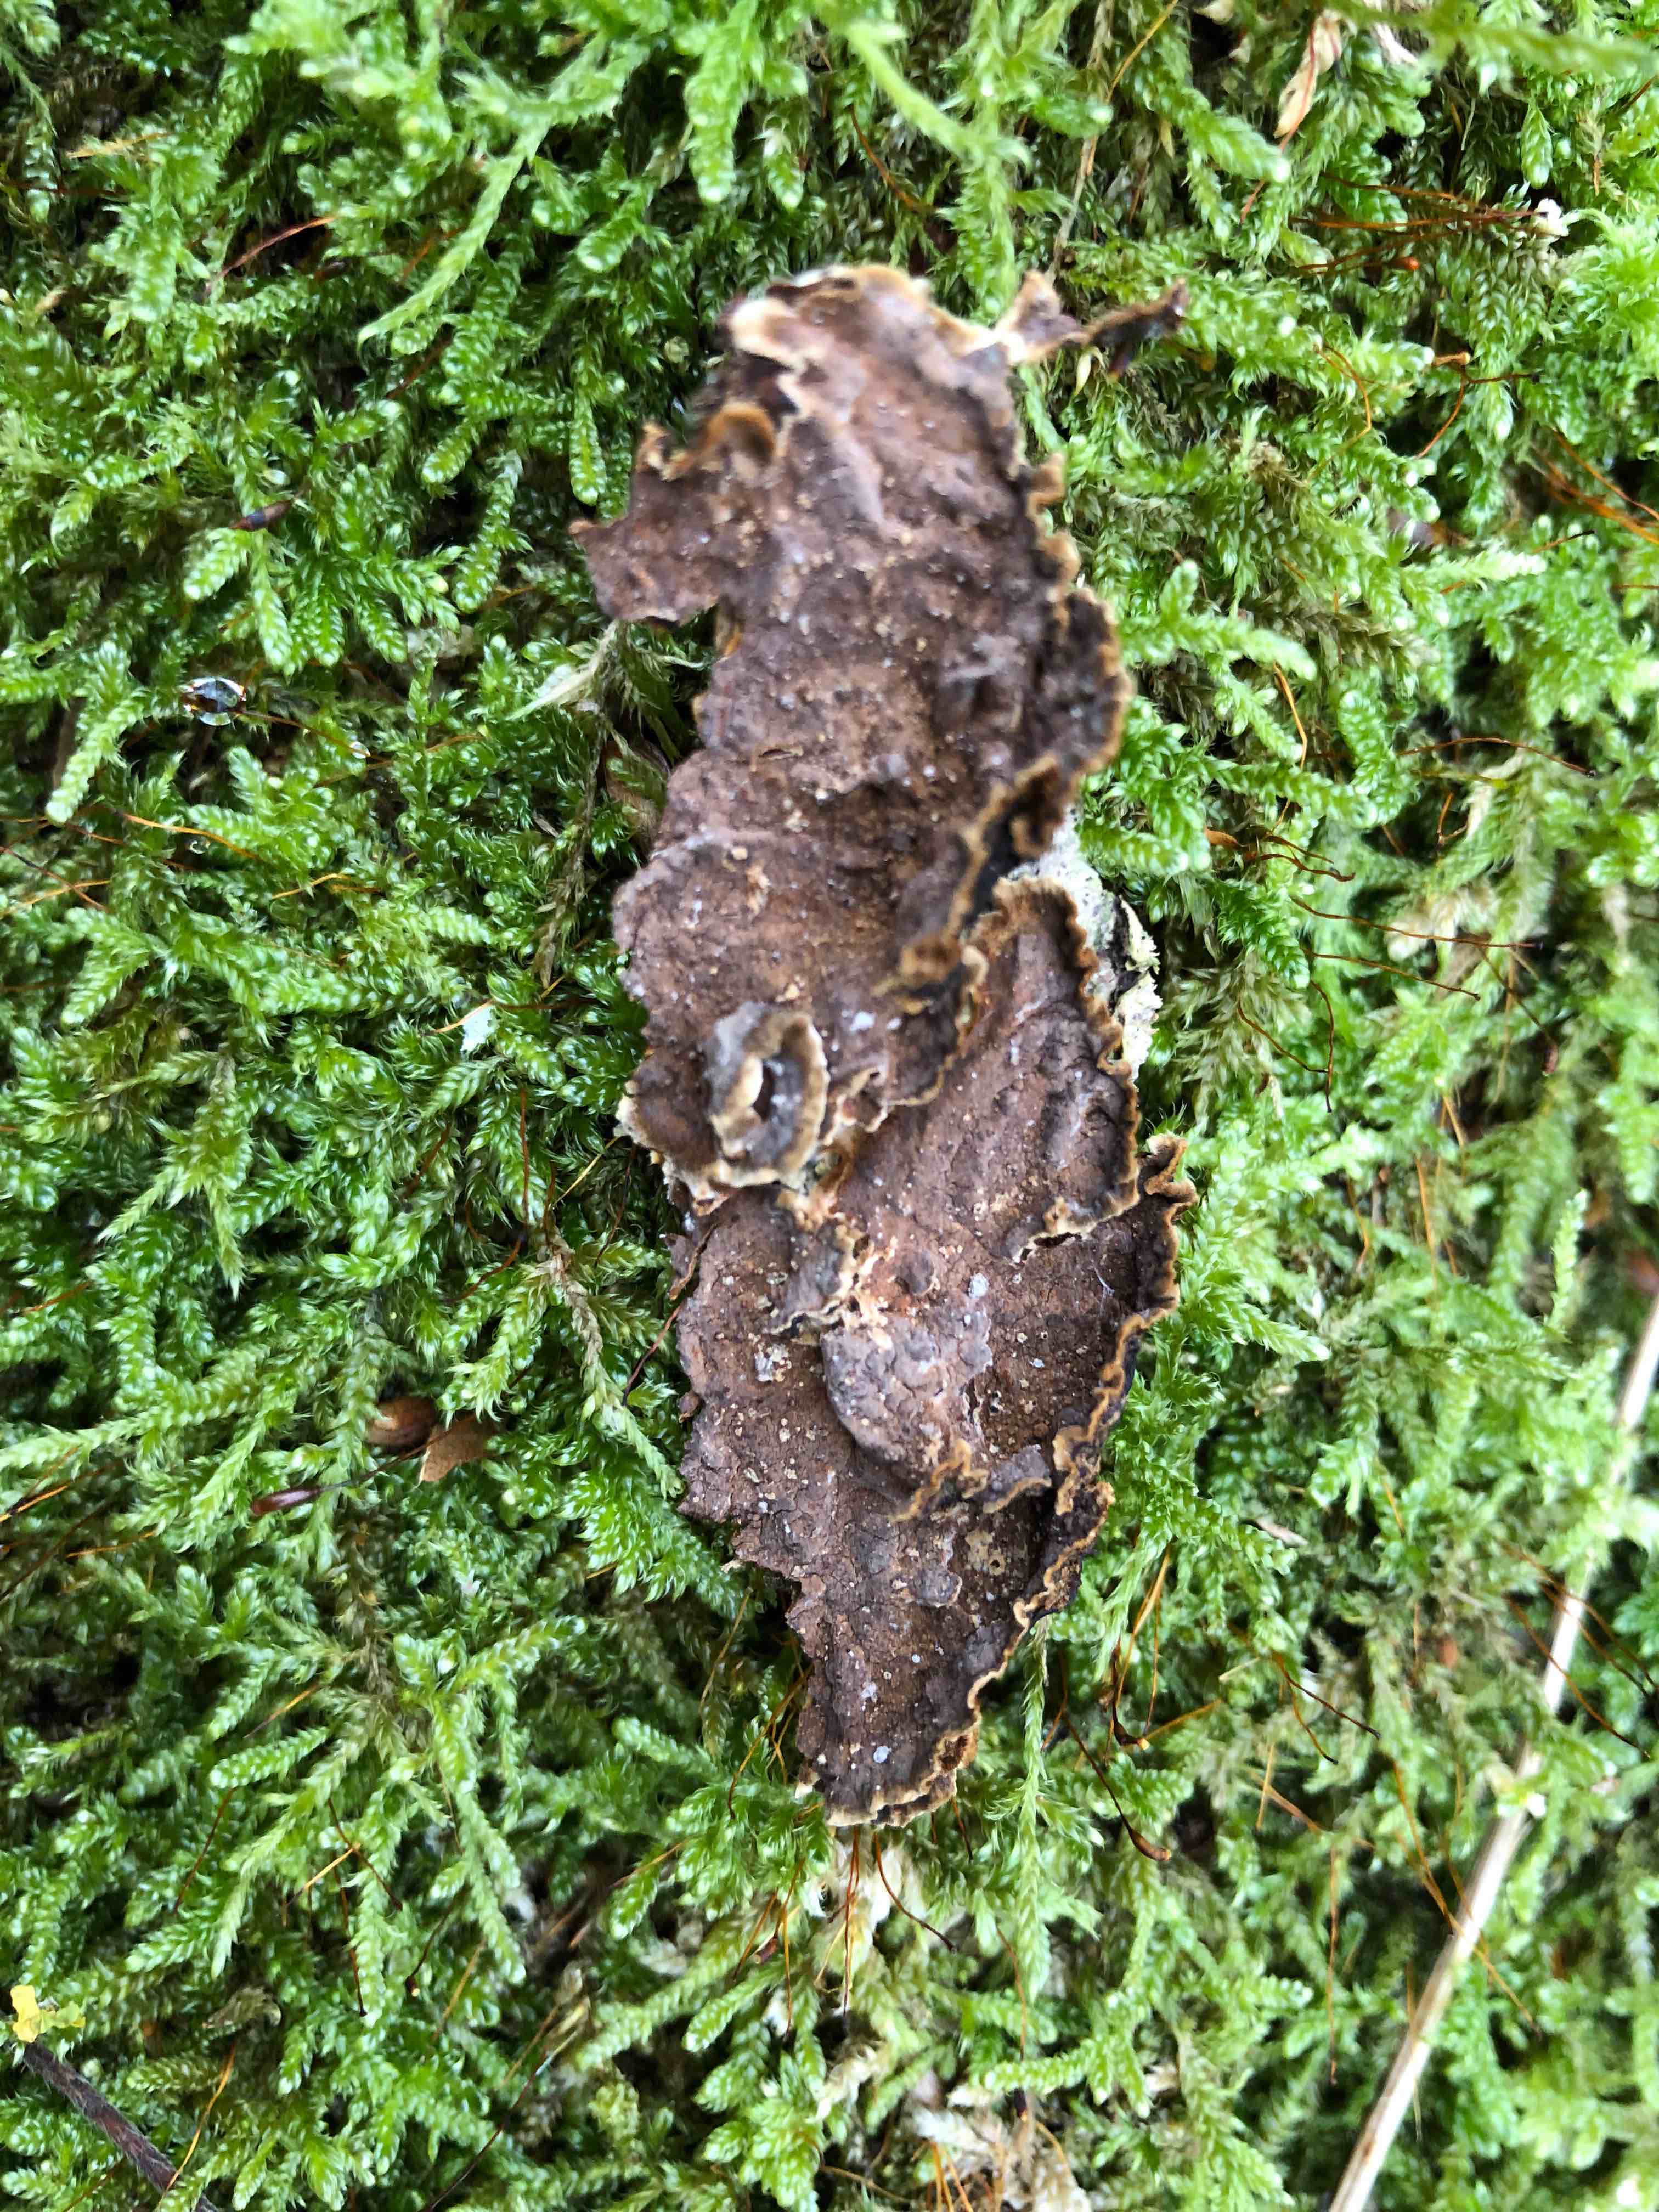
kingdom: Fungi
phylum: Basidiomycota
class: Agaricomycetes
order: Hymenochaetales
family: Hymenochaetaceae
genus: Hydnoporia
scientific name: Hydnoporia tabacina
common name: tobaksbrun ruslædersvamp
